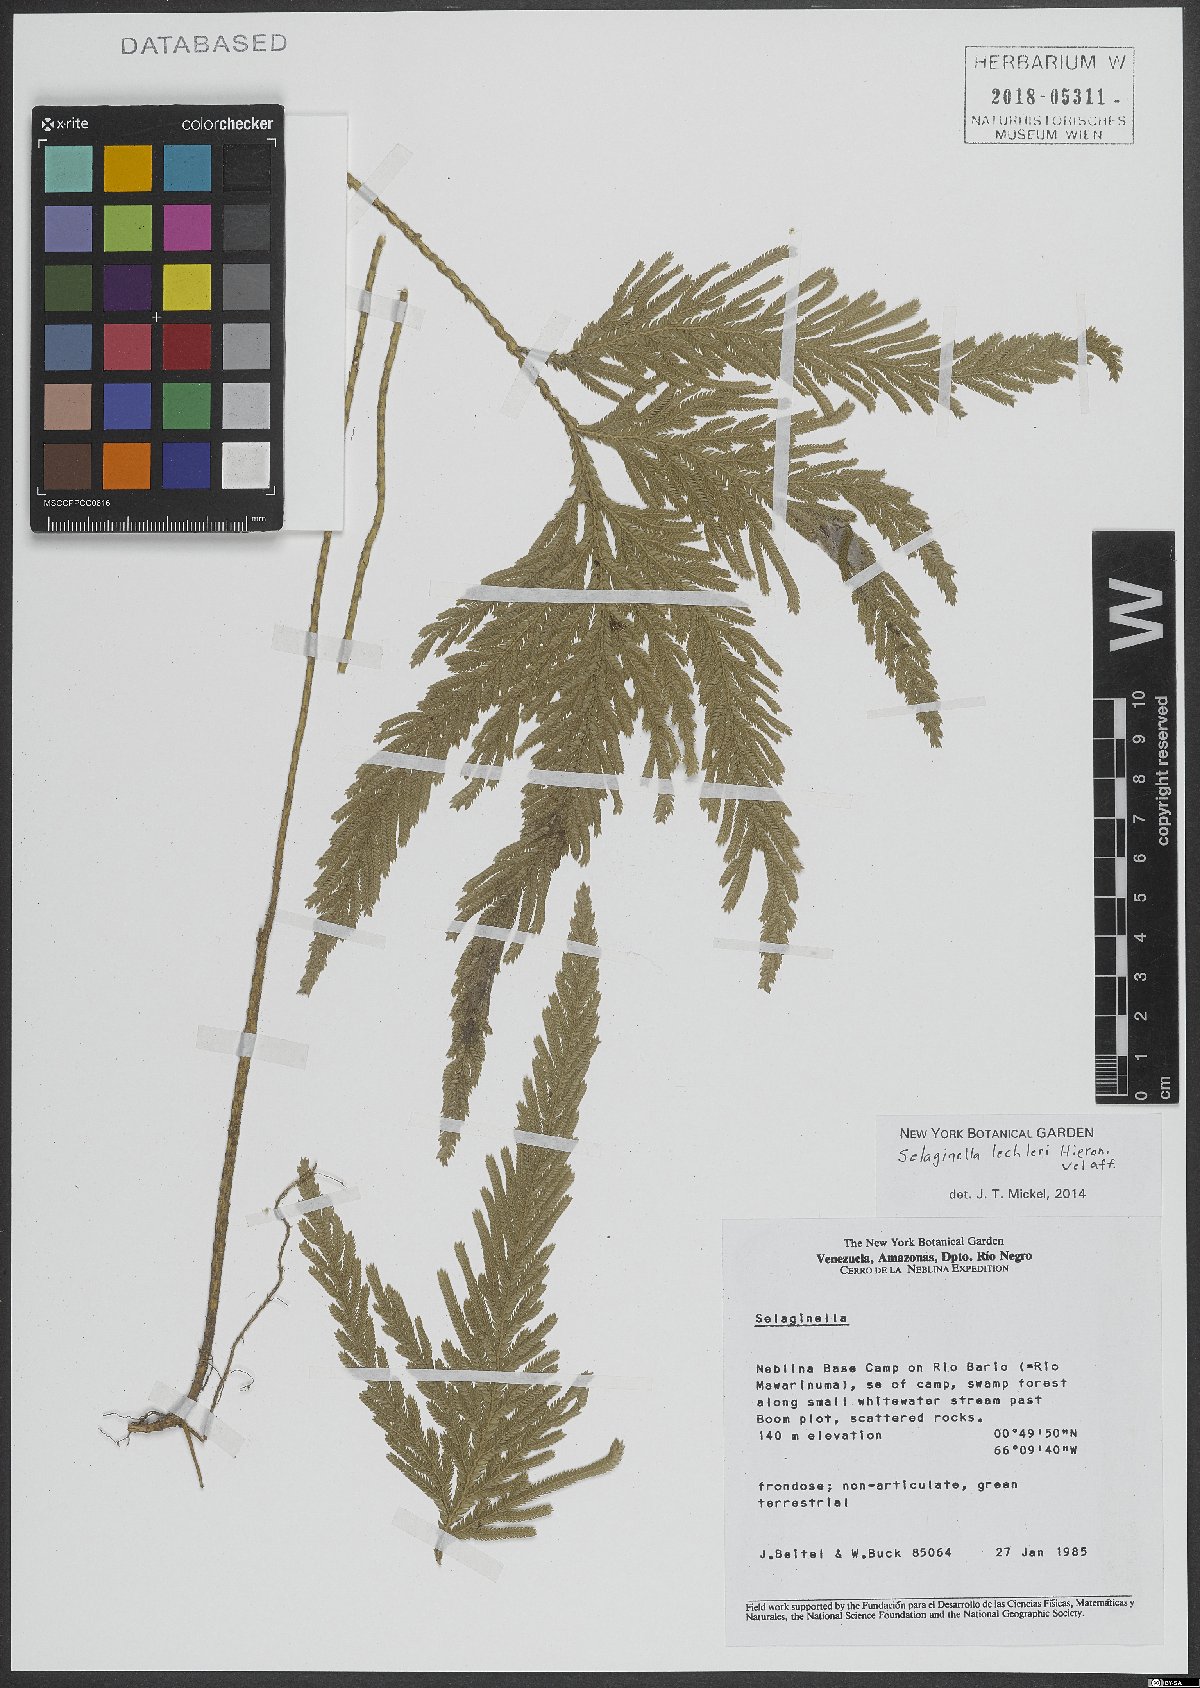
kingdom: Plantae
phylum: Tracheophyta
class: Lycopodiopsida
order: Selaginellales
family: Selaginellaceae
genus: Selaginella
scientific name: Selaginella lechleri
